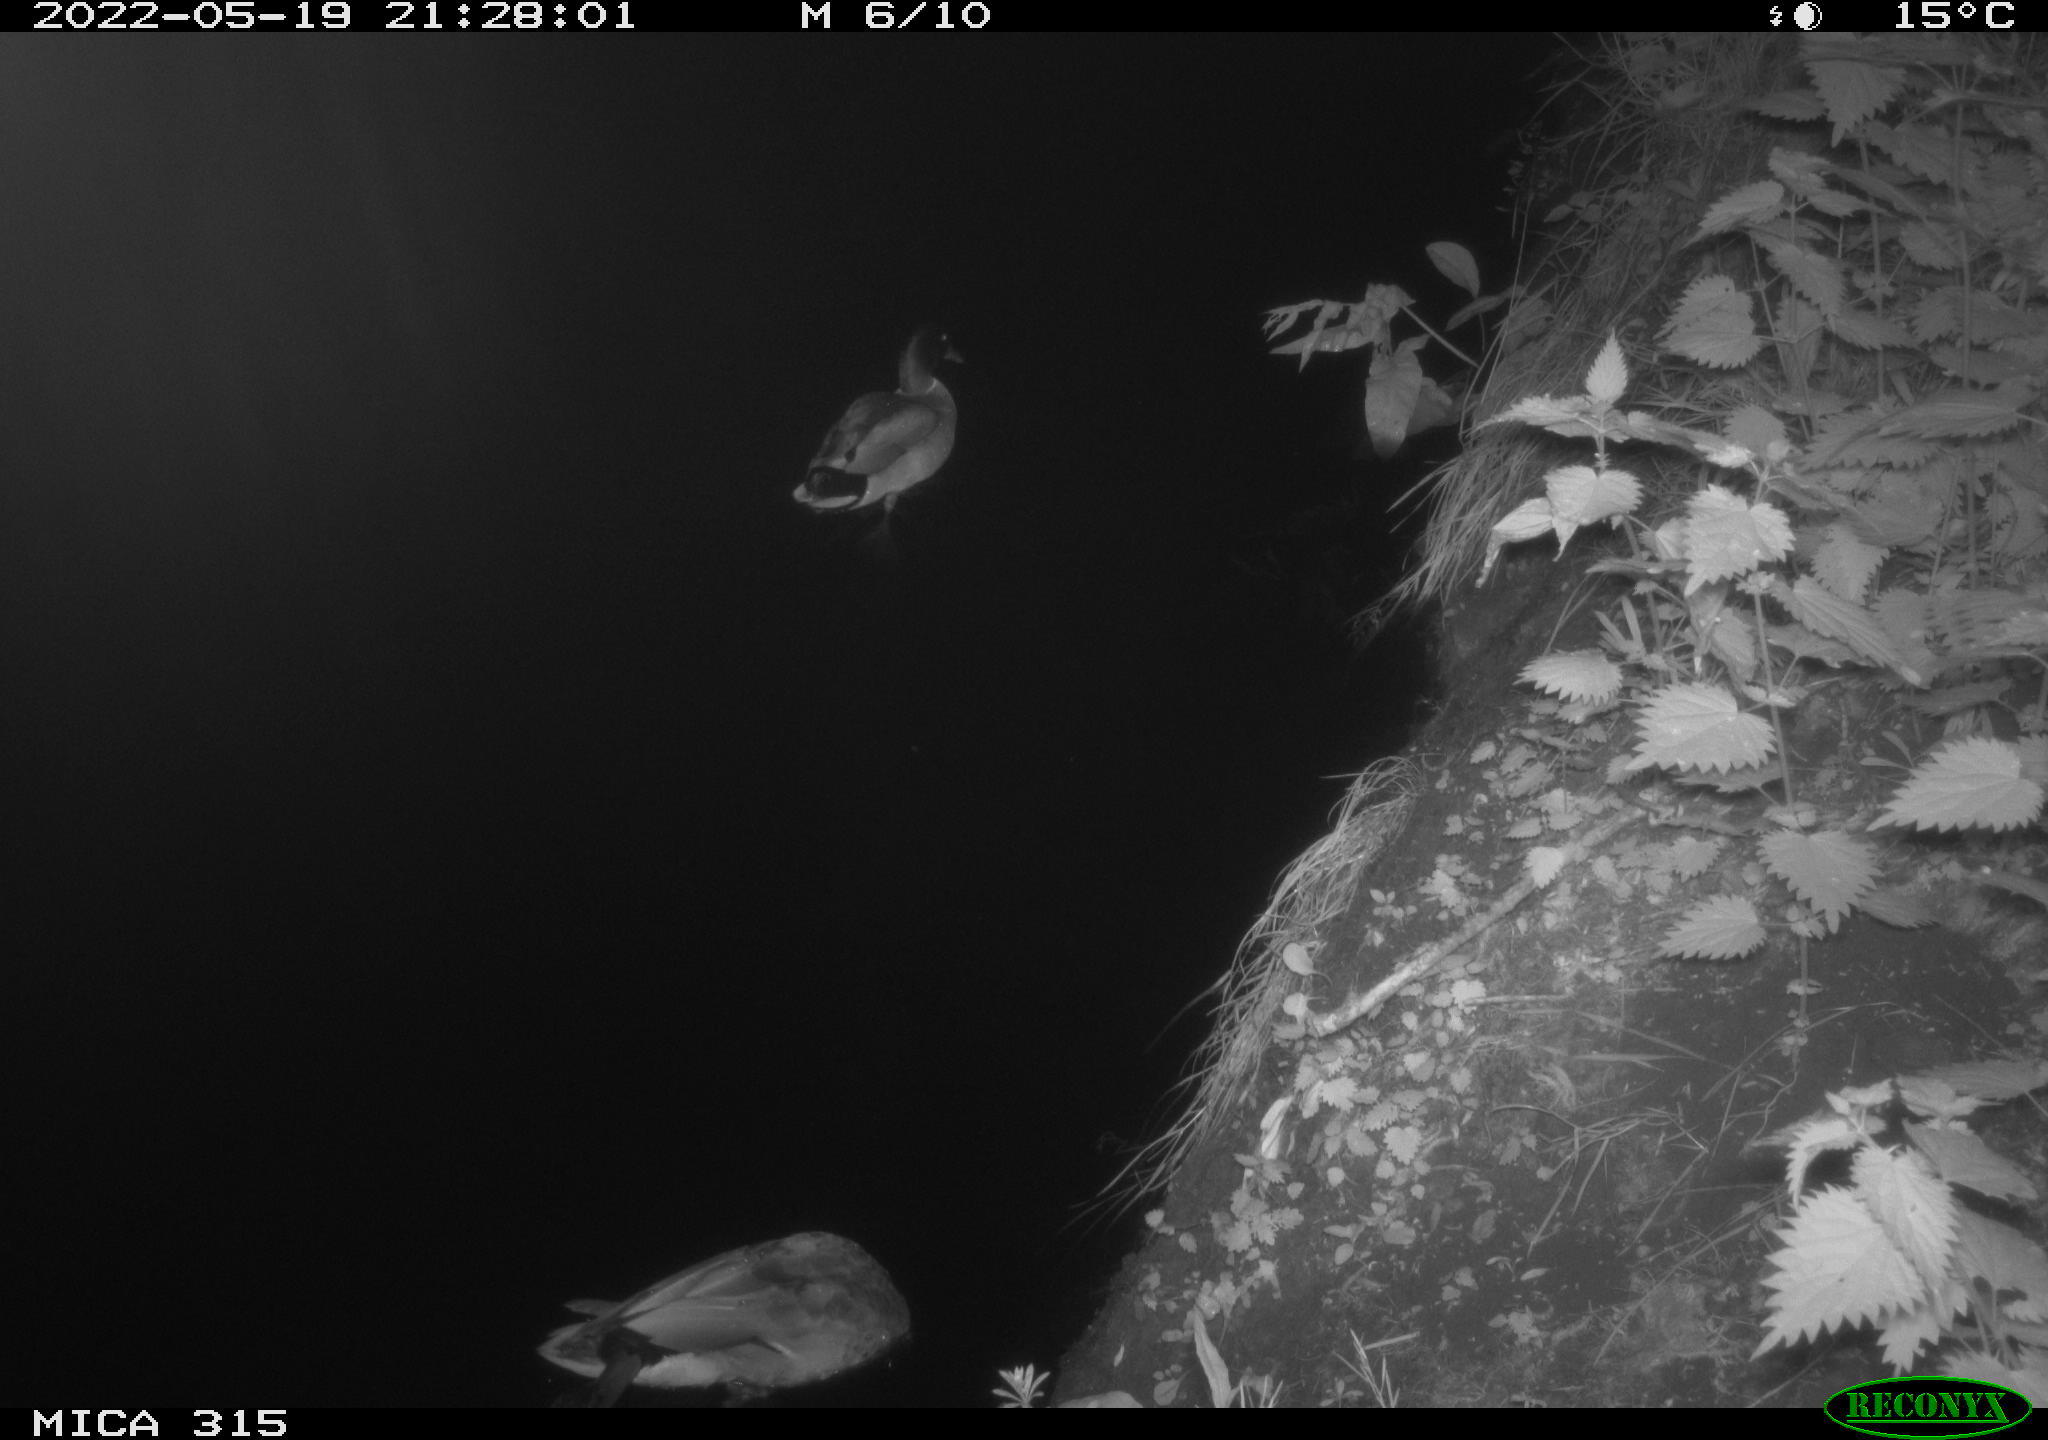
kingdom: Animalia
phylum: Chordata
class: Aves
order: Anseriformes
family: Anatidae
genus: Anas
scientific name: Anas
